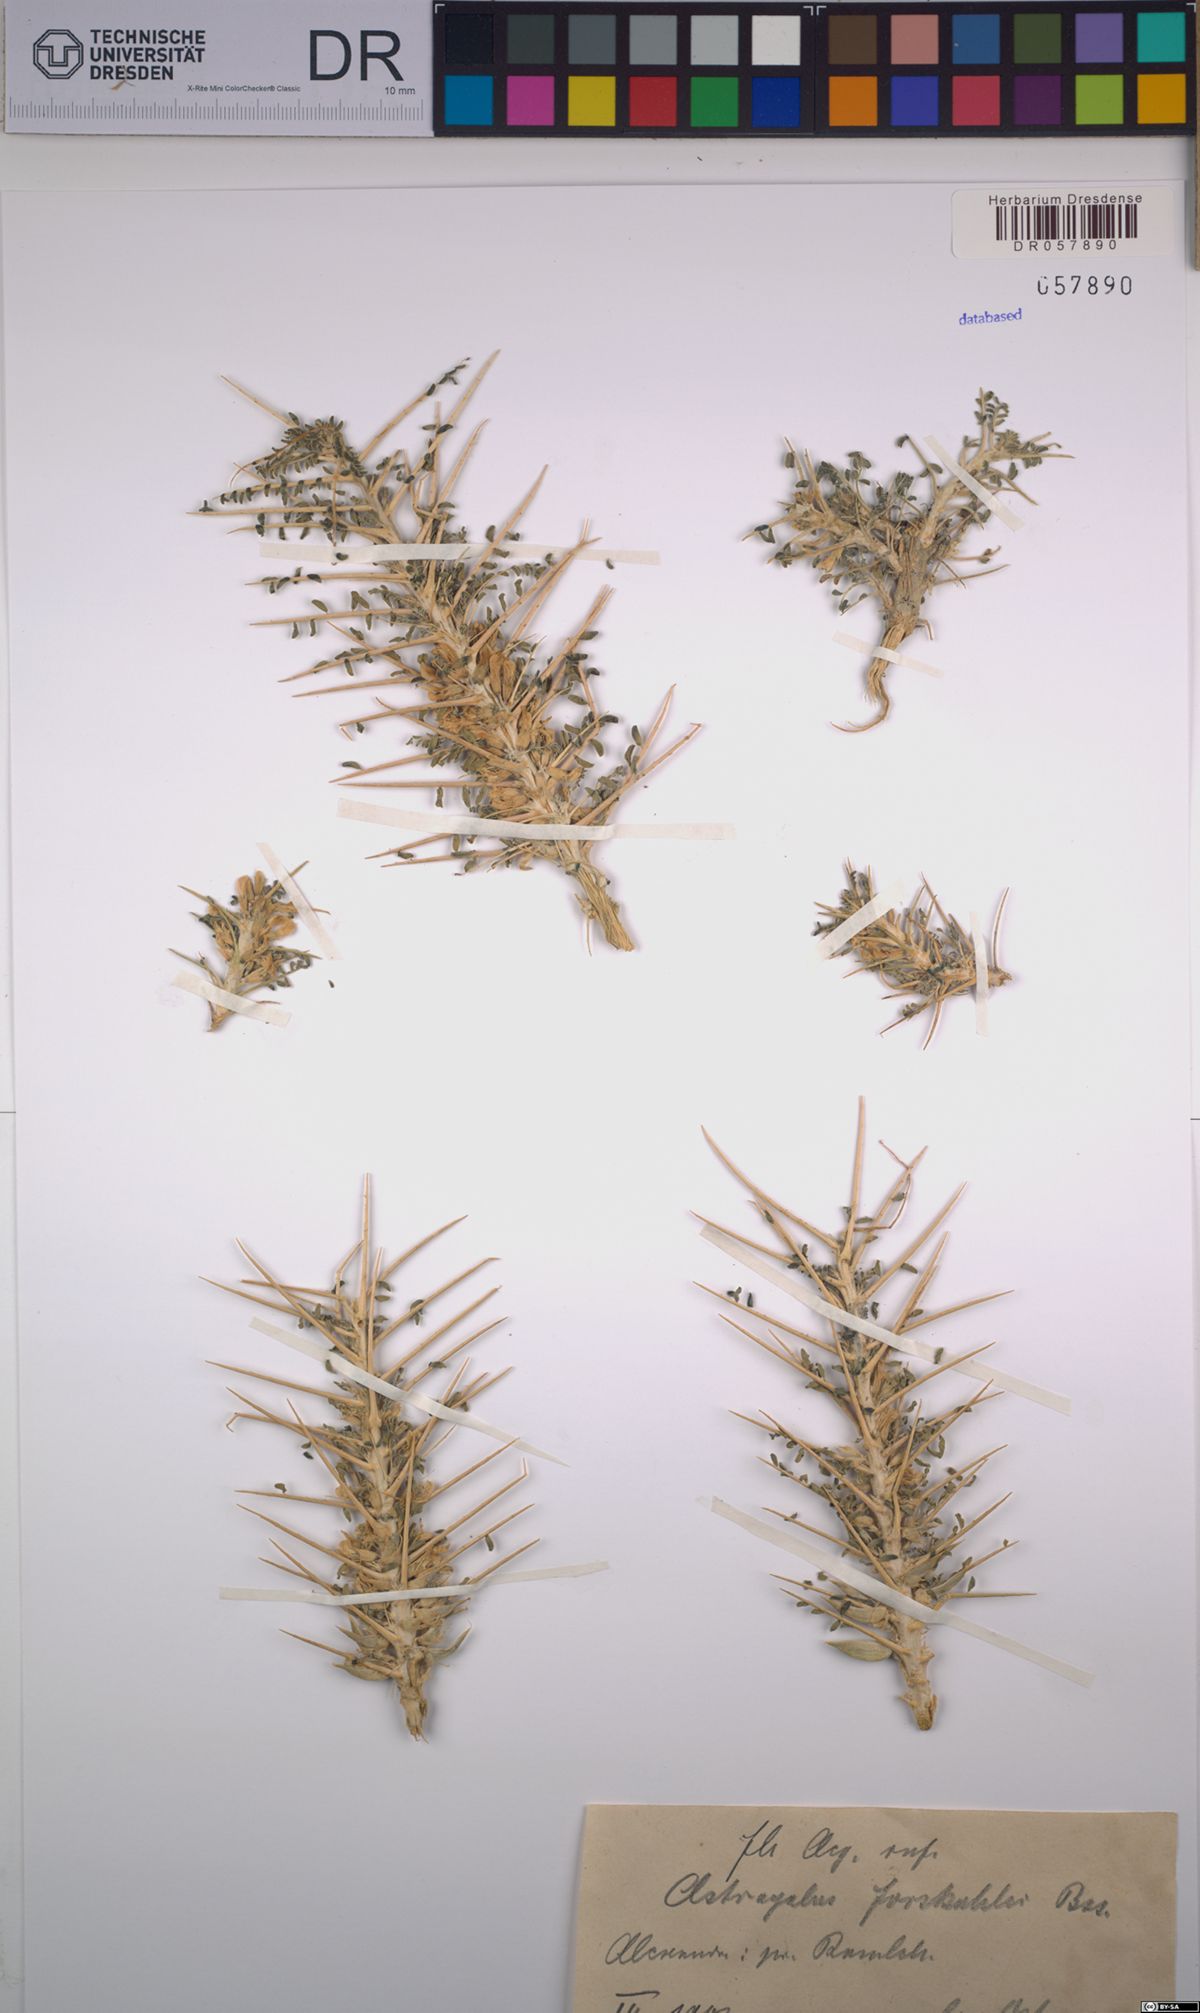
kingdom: Plantae
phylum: Tracheophyta
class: Magnoliopsida
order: Fabales
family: Fabaceae
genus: Astragalus
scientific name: Astragalus forskahlei
